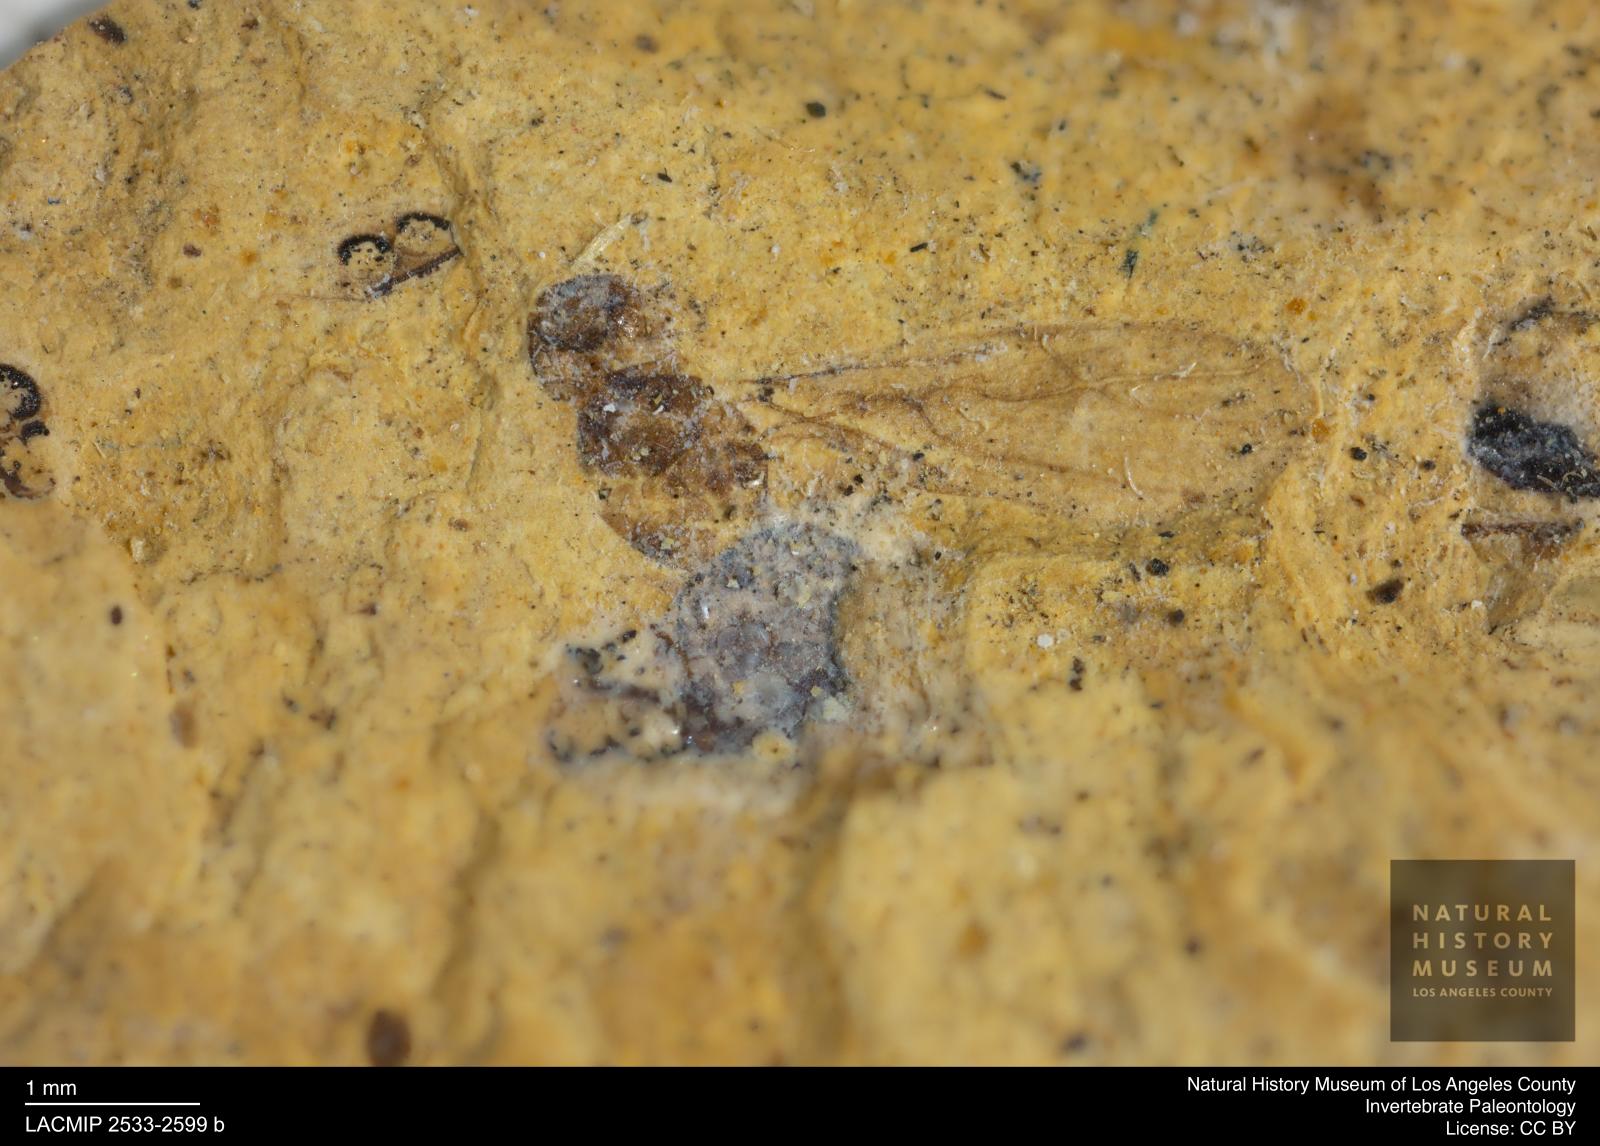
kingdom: Animalia
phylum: Arthropoda
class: Insecta
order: Hymenoptera
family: Formicidae
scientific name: Formicidae
